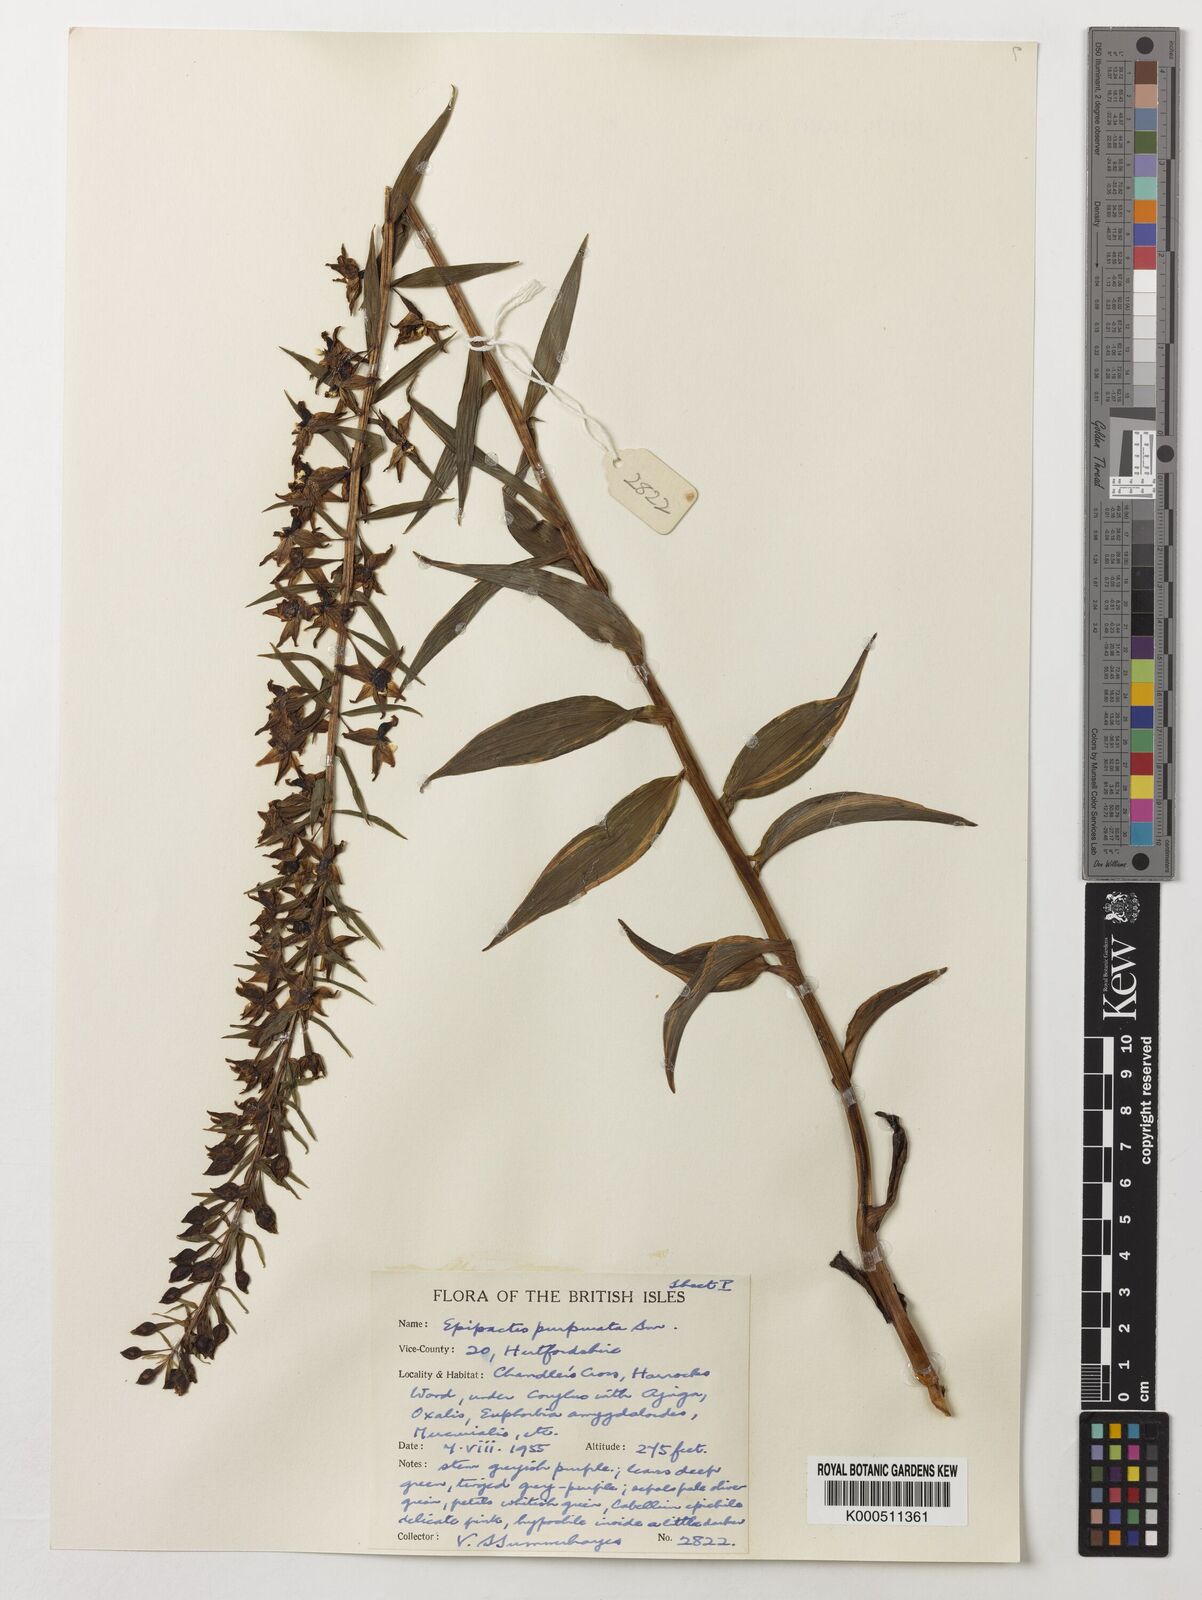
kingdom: Plantae
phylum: Tracheophyta
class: Liliopsida
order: Asparagales
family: Orchidaceae
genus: Epipactis
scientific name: Epipactis purpurata
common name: Violet helleborine
